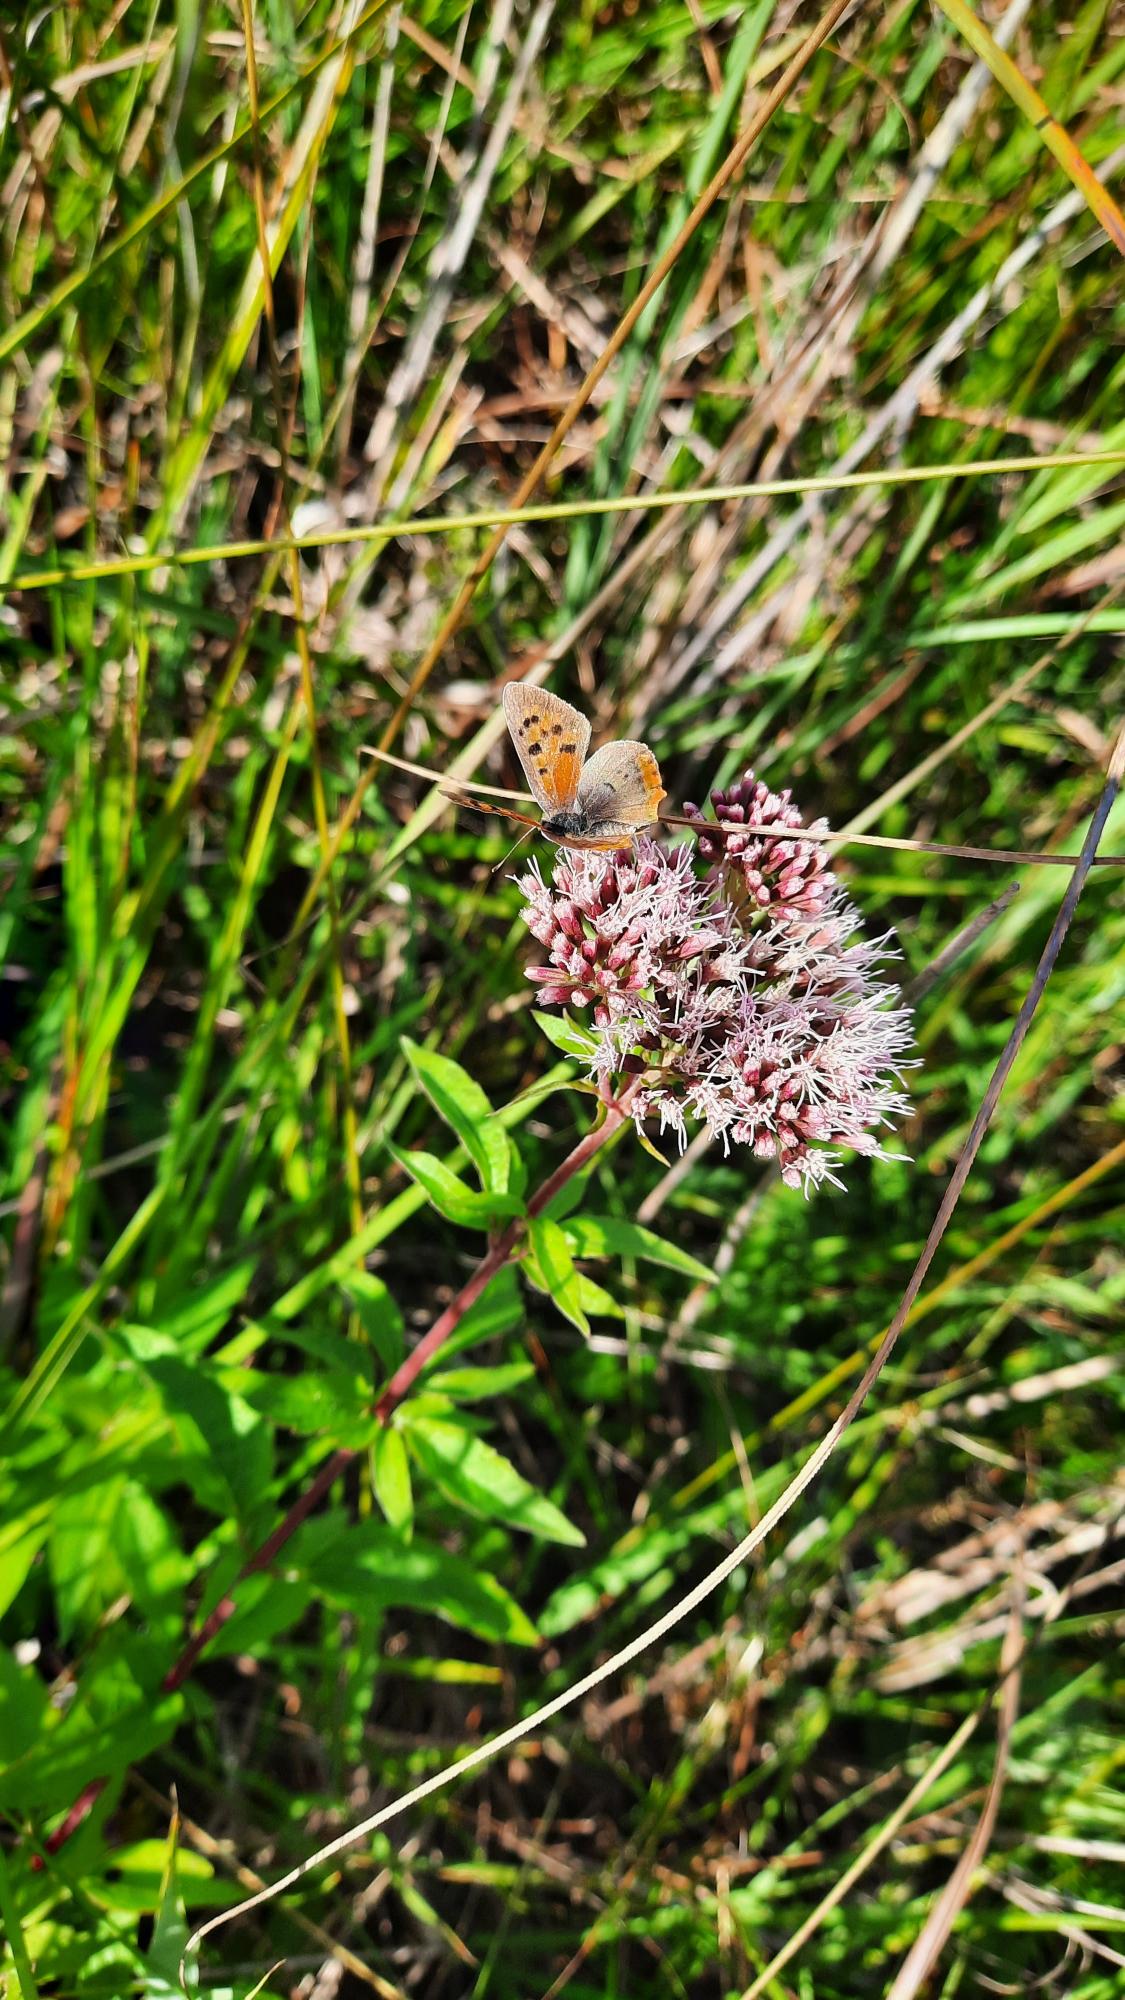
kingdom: Animalia
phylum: Arthropoda
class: Insecta
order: Lepidoptera
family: Lycaenidae
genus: Lycaena
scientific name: Lycaena phlaeas
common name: Lille ildfugl
